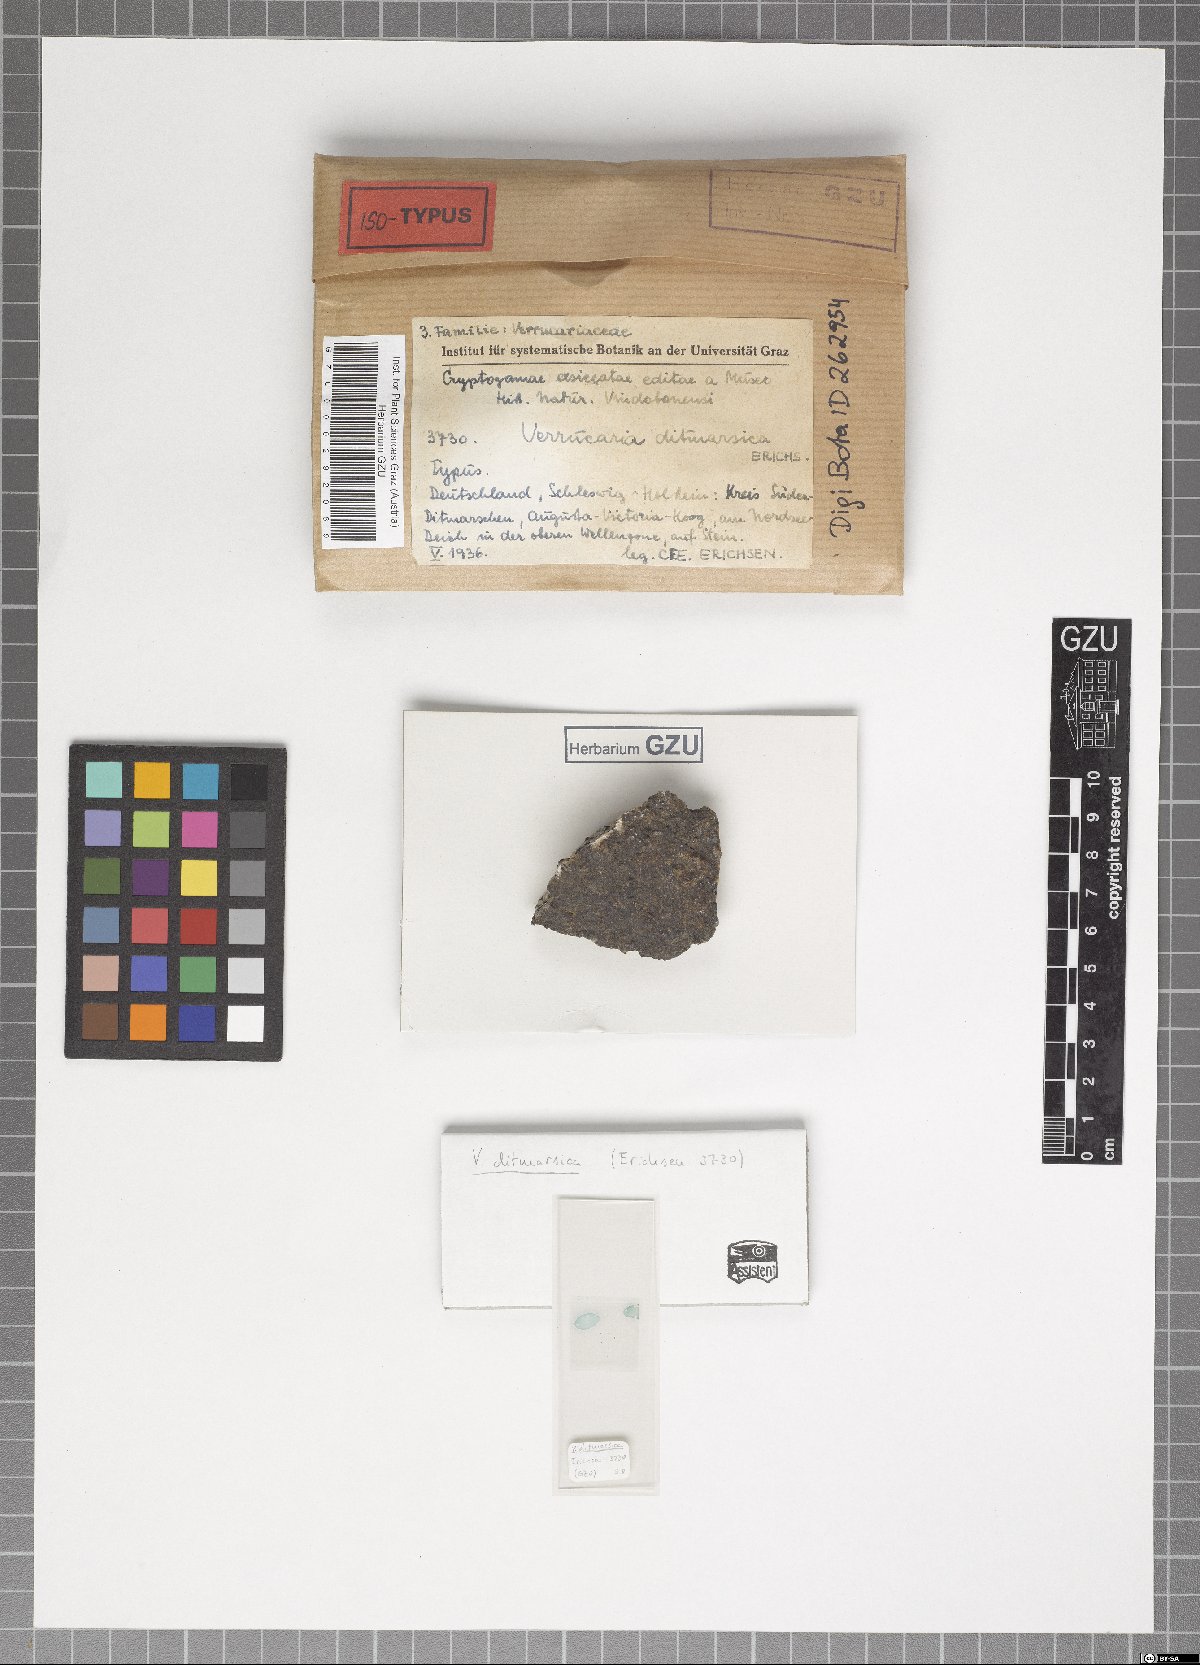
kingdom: Fungi
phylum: Ascomycota
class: Eurotiomycetes
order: Verrucariales
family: Verrucariaceae
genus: Verrucaria
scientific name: Verrucaria ditmarsica
